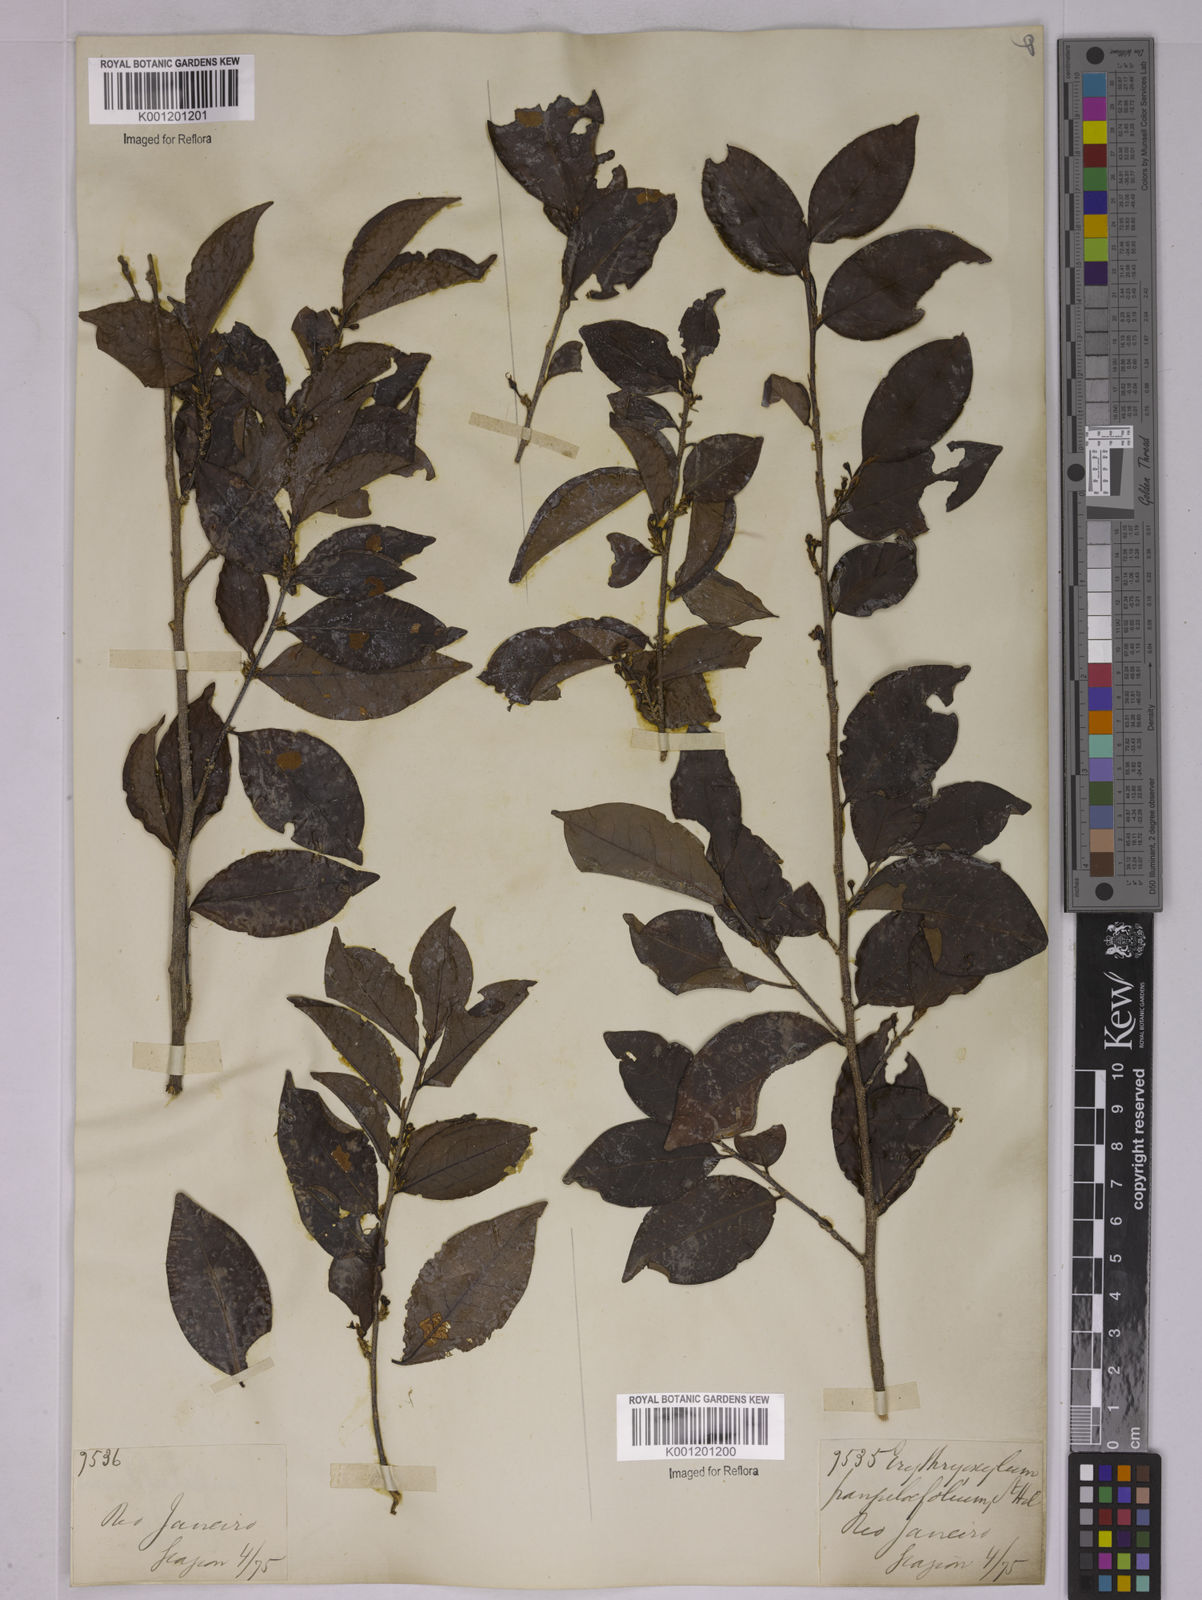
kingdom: Plantae
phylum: Tracheophyta
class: Magnoliopsida
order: Malpighiales
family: Erythroxylaceae
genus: Erythroxylum
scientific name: Erythroxylum frangulifolium
